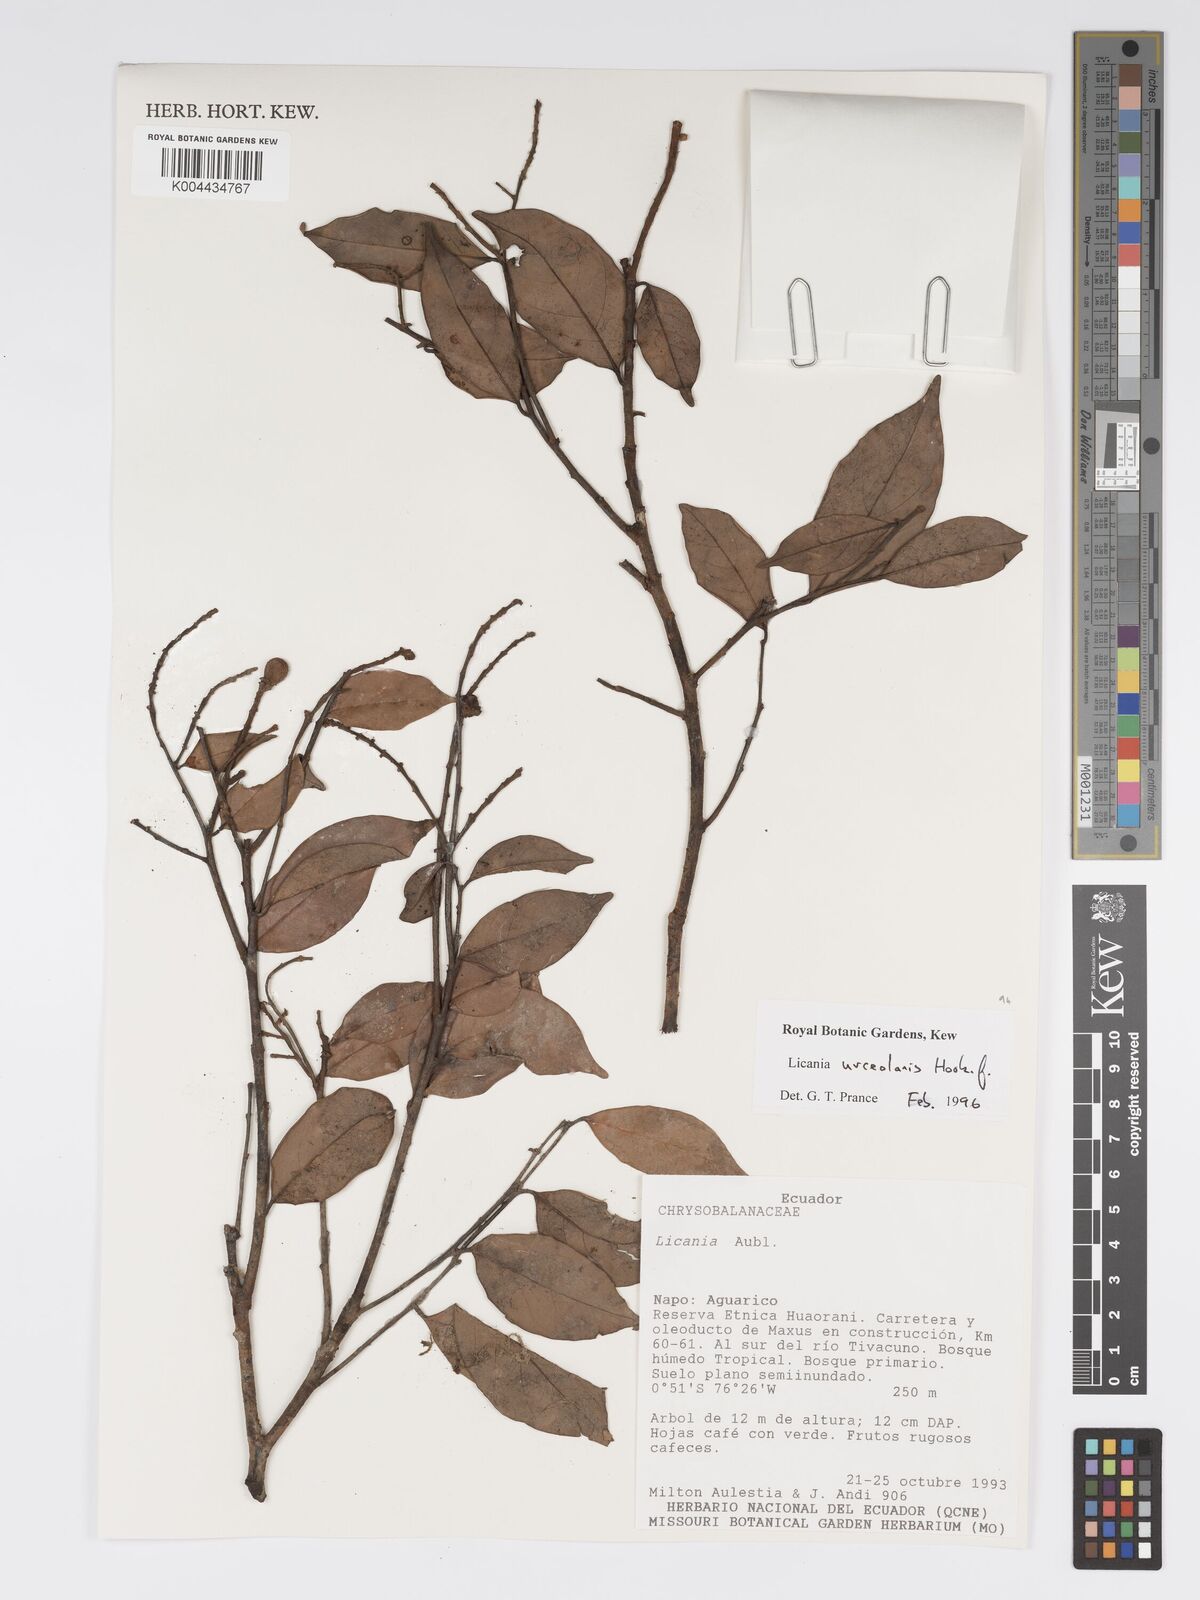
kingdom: Plantae
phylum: Tracheophyta
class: Magnoliopsida
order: Malpighiales
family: Chrysobalanaceae
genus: Licania
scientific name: Licania urceolaris
